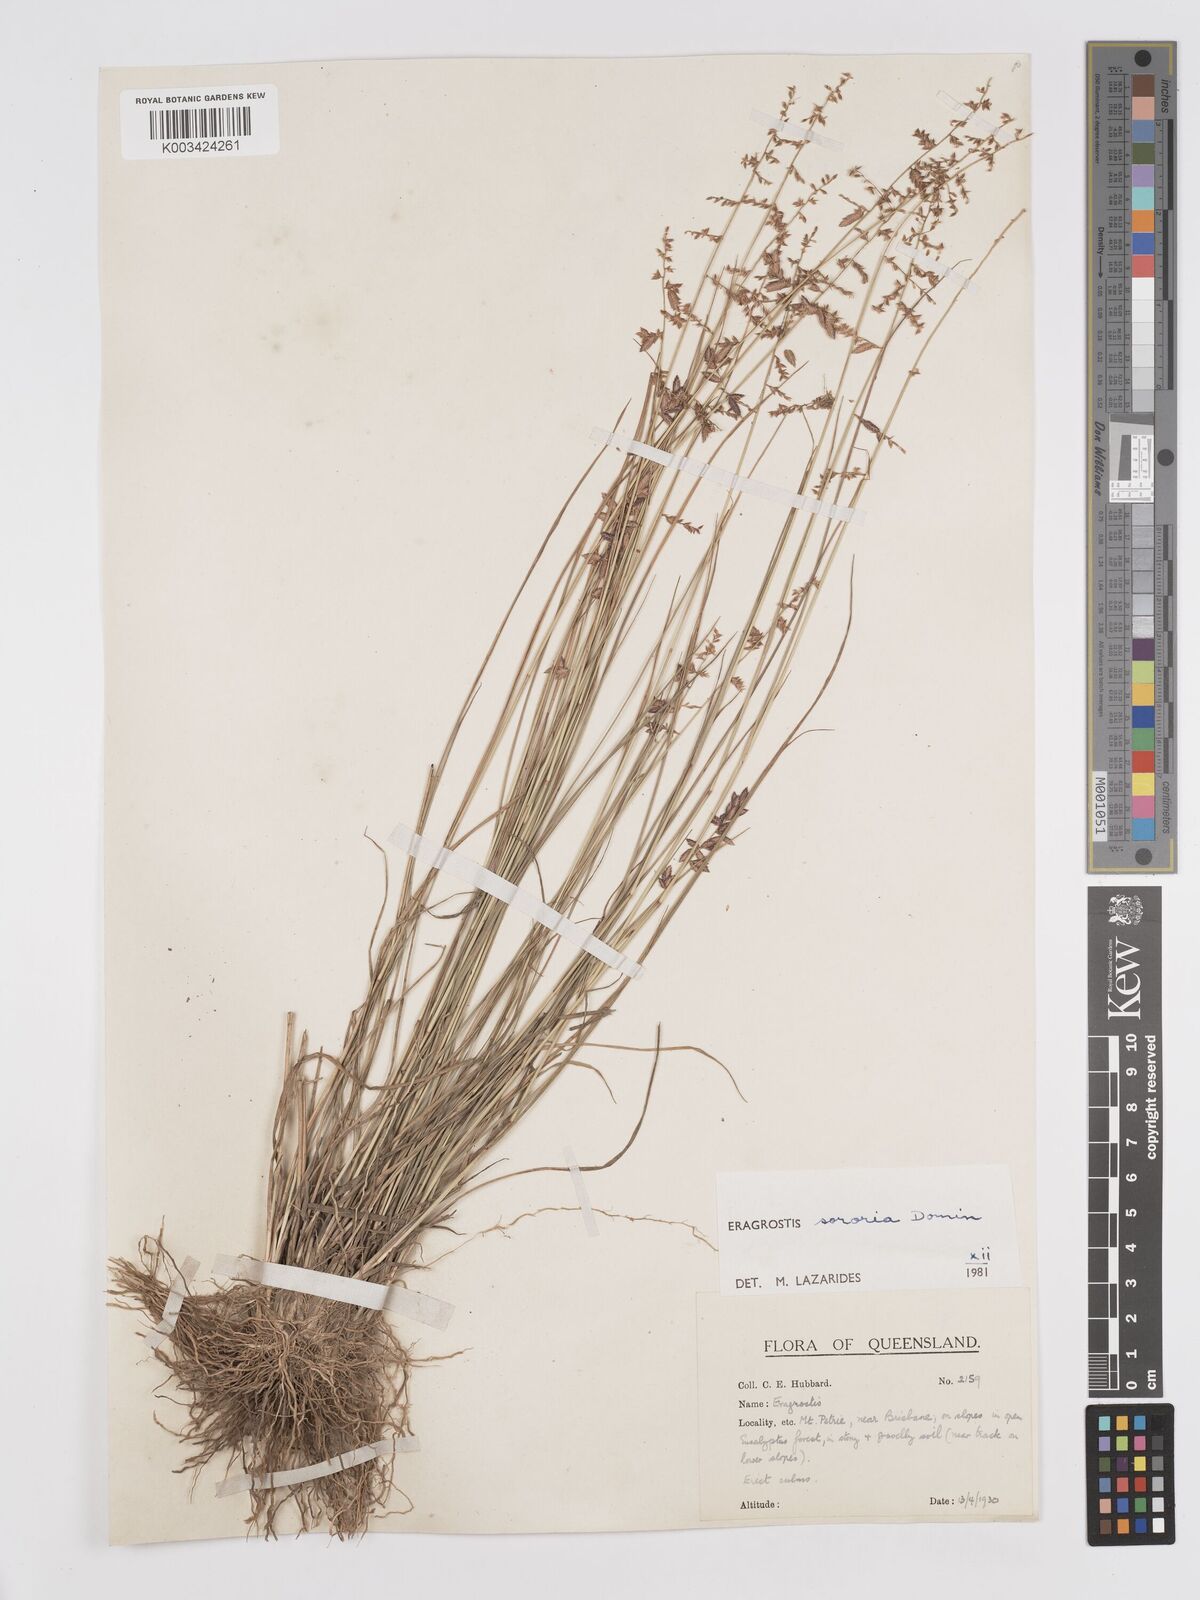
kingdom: Plantae
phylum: Tracheophyta
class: Liliopsida
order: Poales
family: Poaceae
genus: Eragrostis
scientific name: Eragrostis sororia
